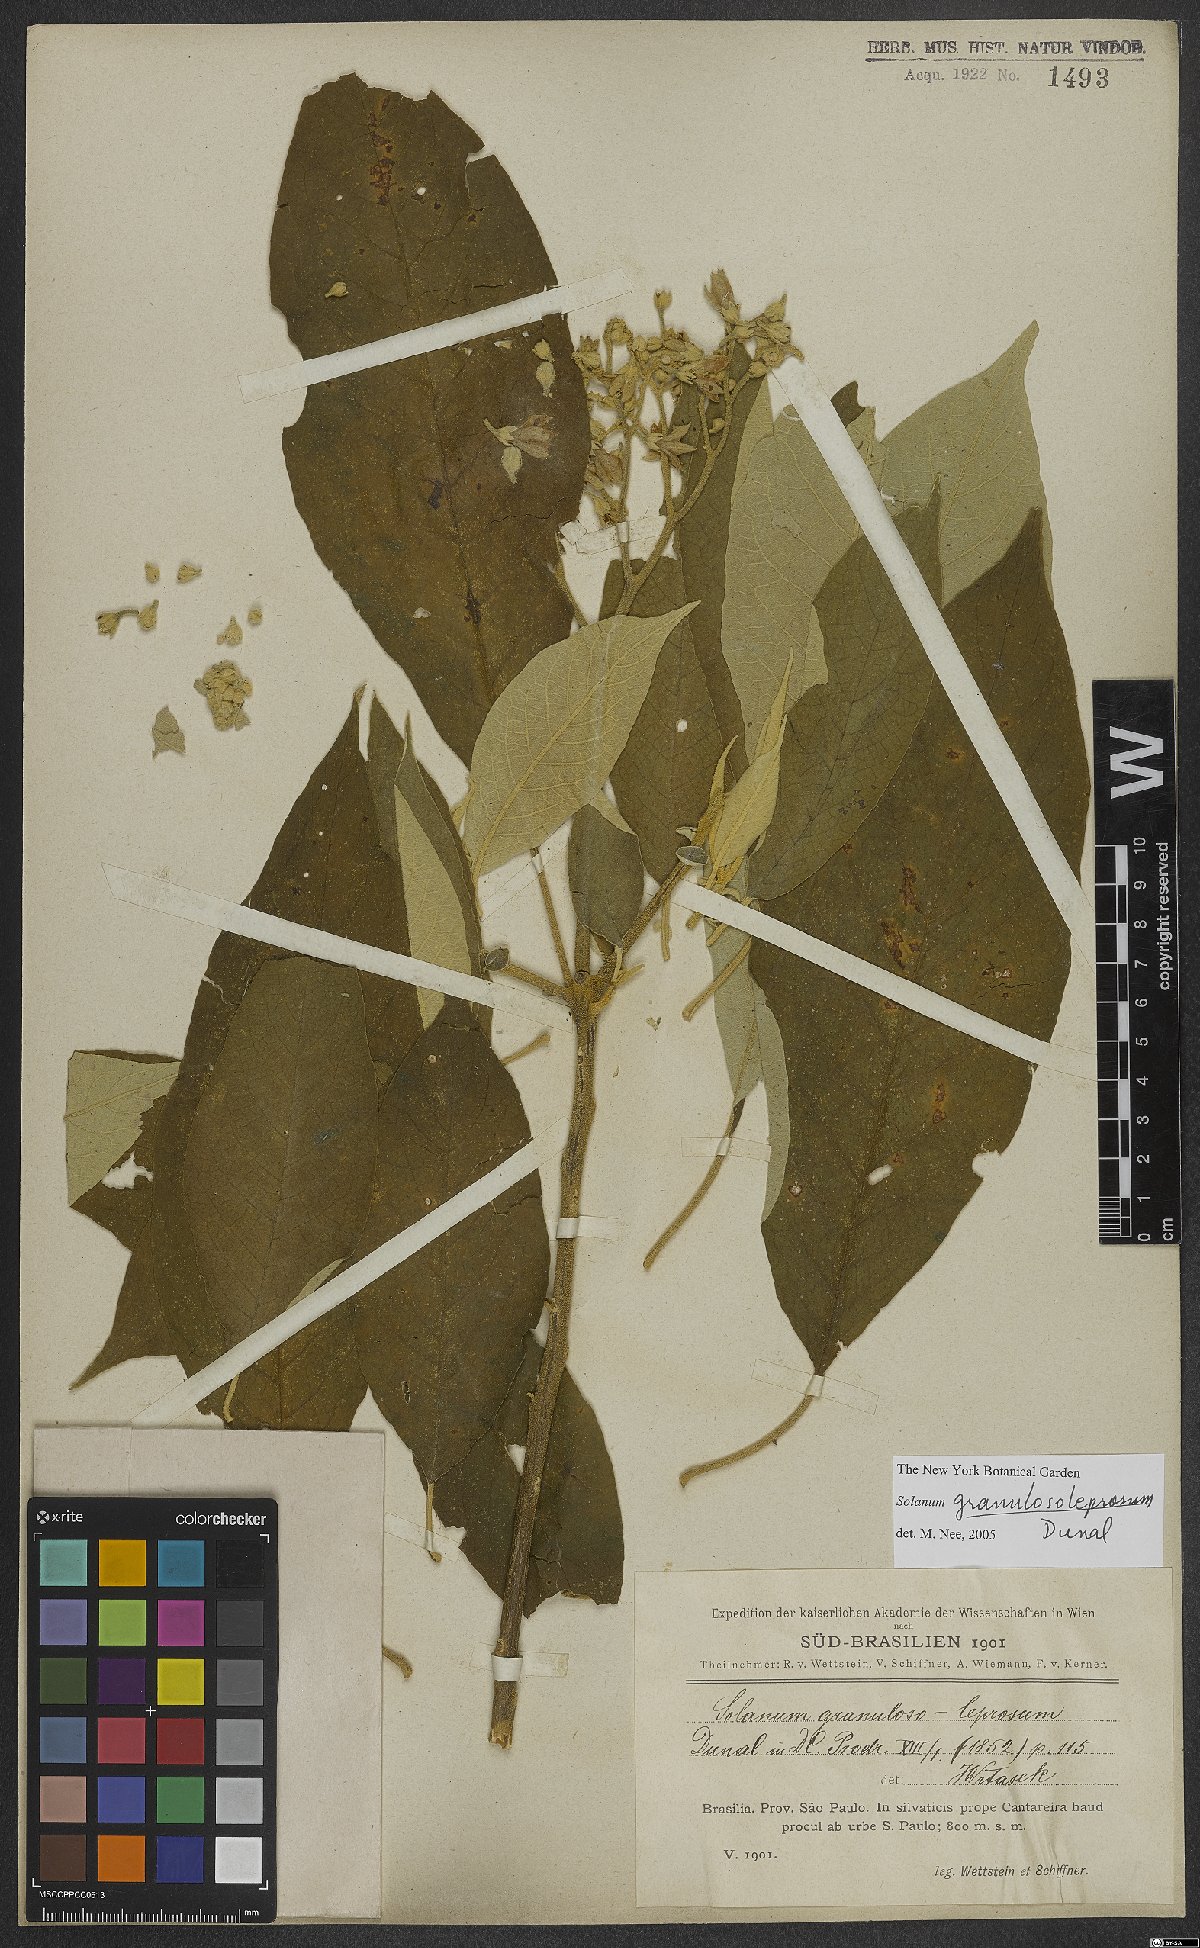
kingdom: Plantae
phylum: Tracheophyta
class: Magnoliopsida
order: Solanales
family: Solanaceae
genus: Solanum
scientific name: Solanum granulosoleprosum
